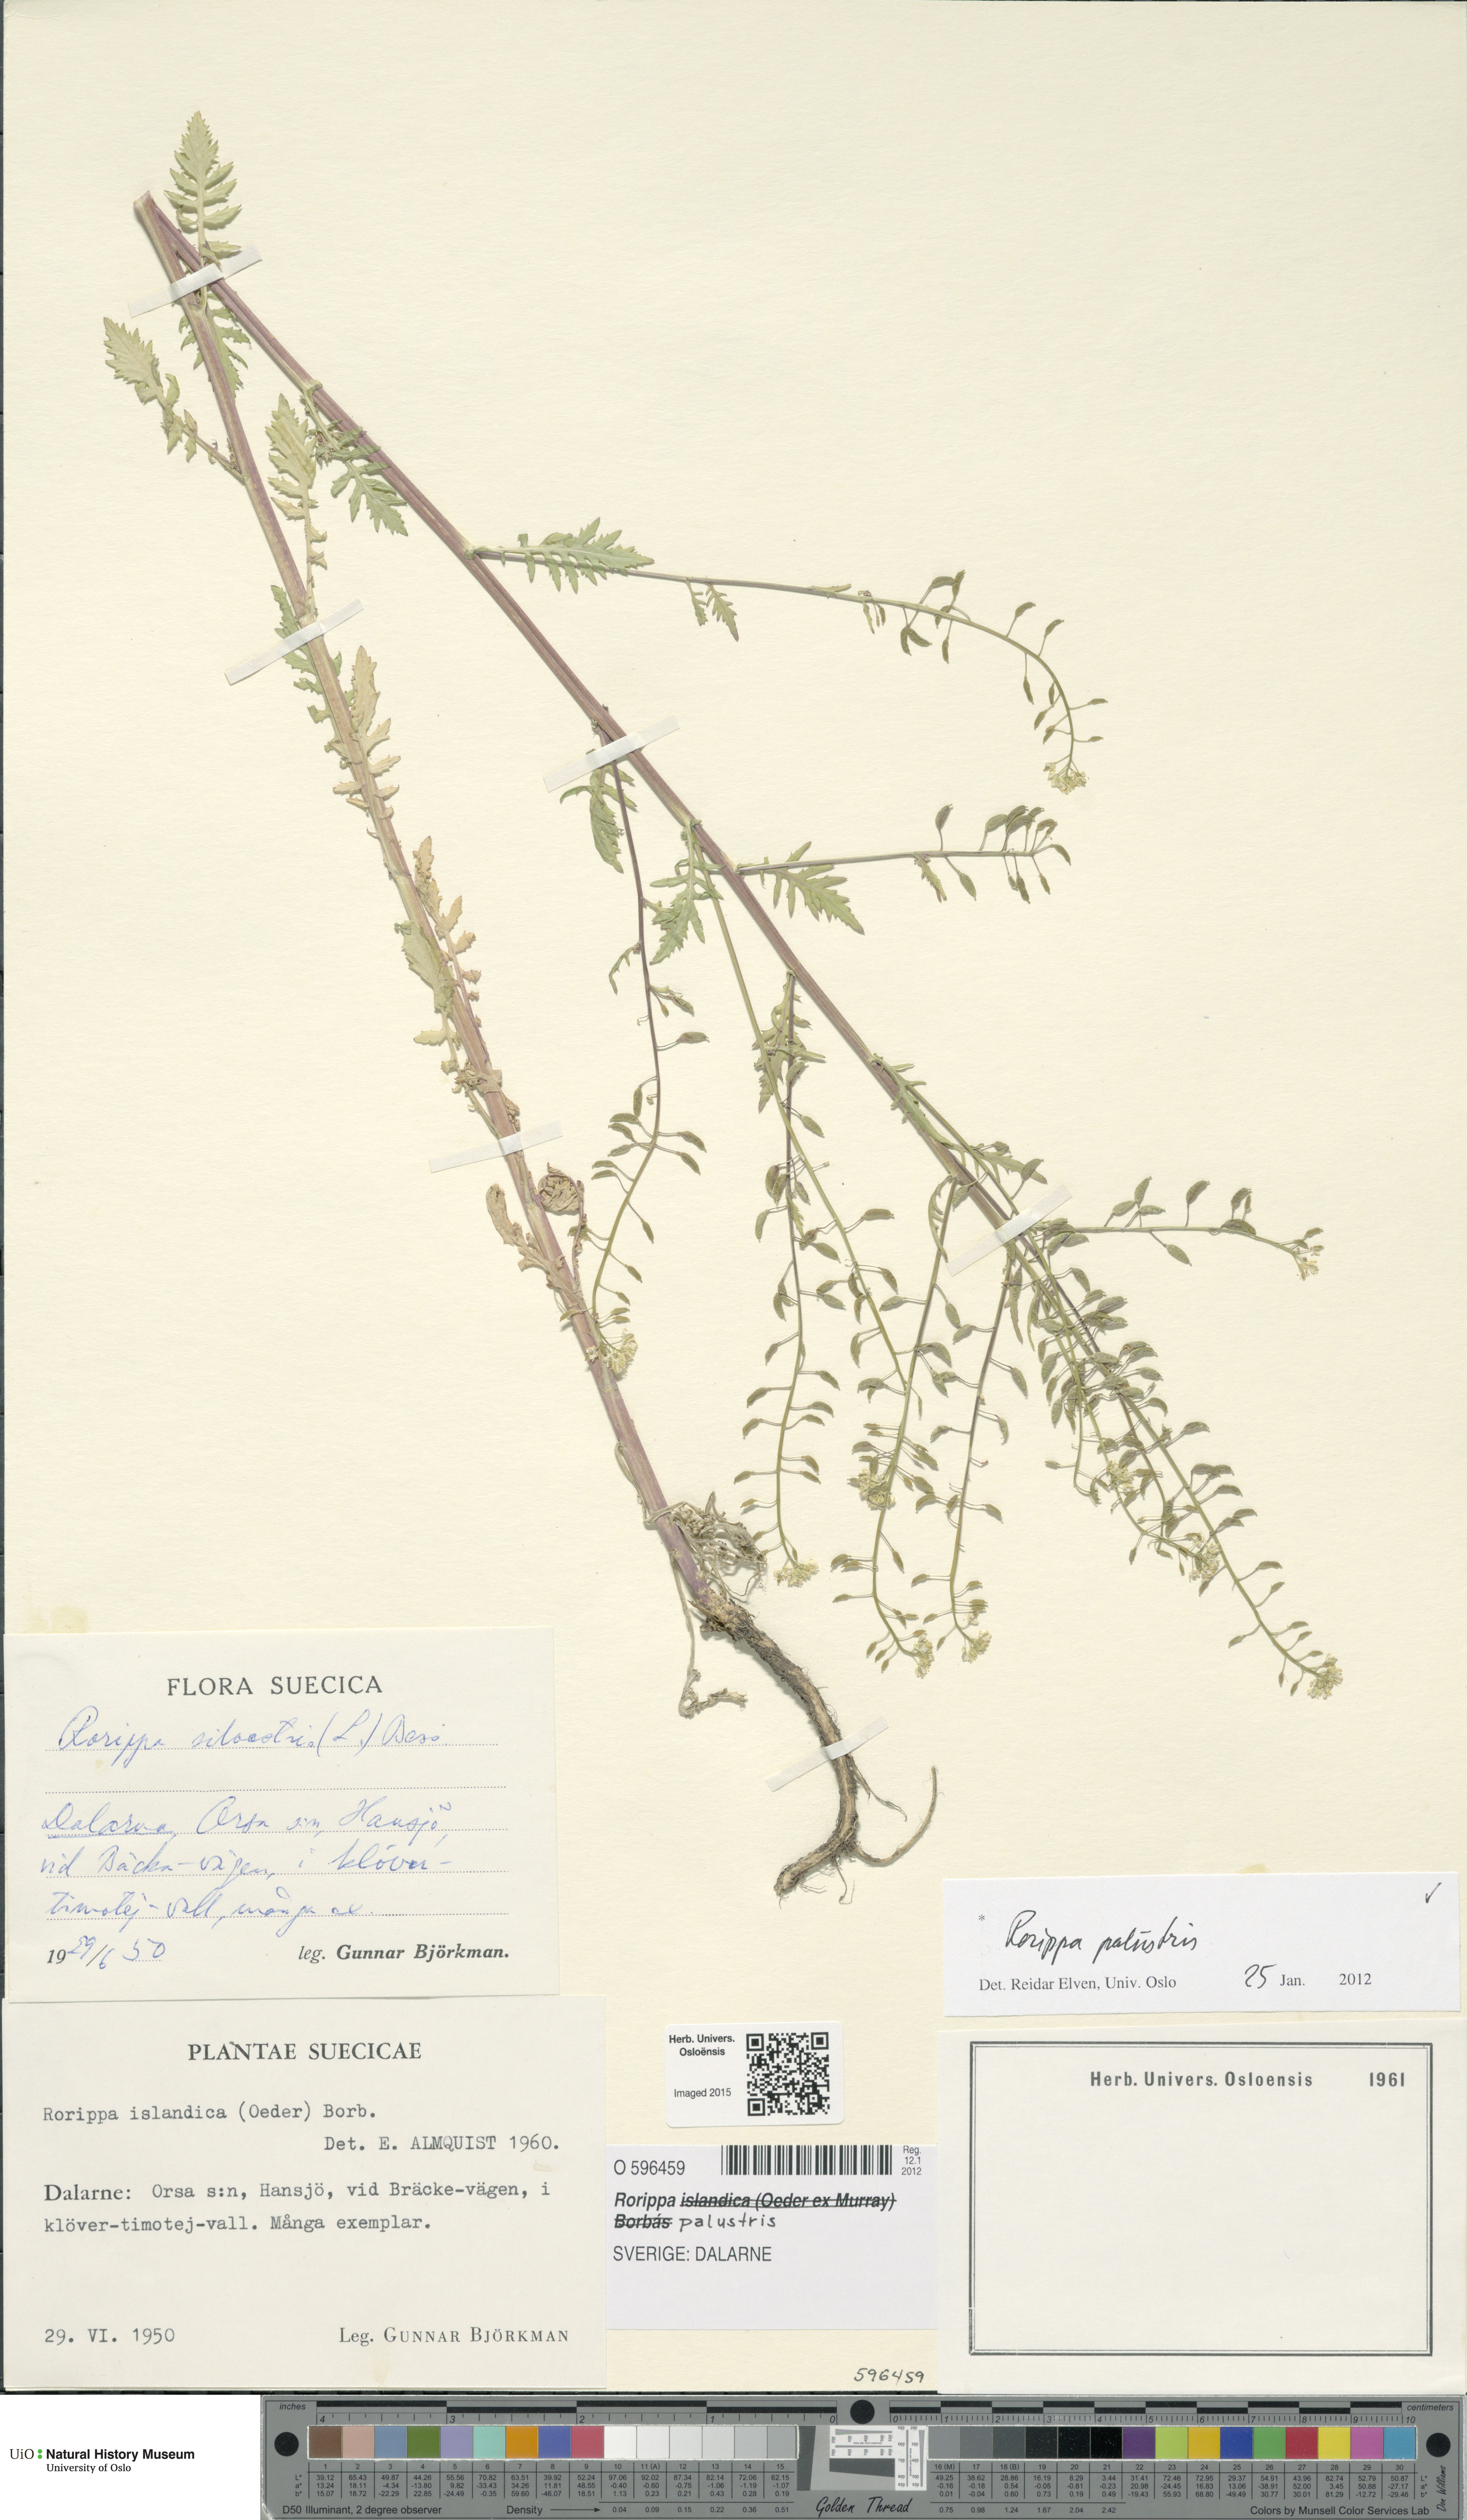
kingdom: Plantae
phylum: Tracheophyta
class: Magnoliopsida
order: Brassicales
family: Brassicaceae
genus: Rorippa
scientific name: Rorippa palustris
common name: Marsh yellow-cress
